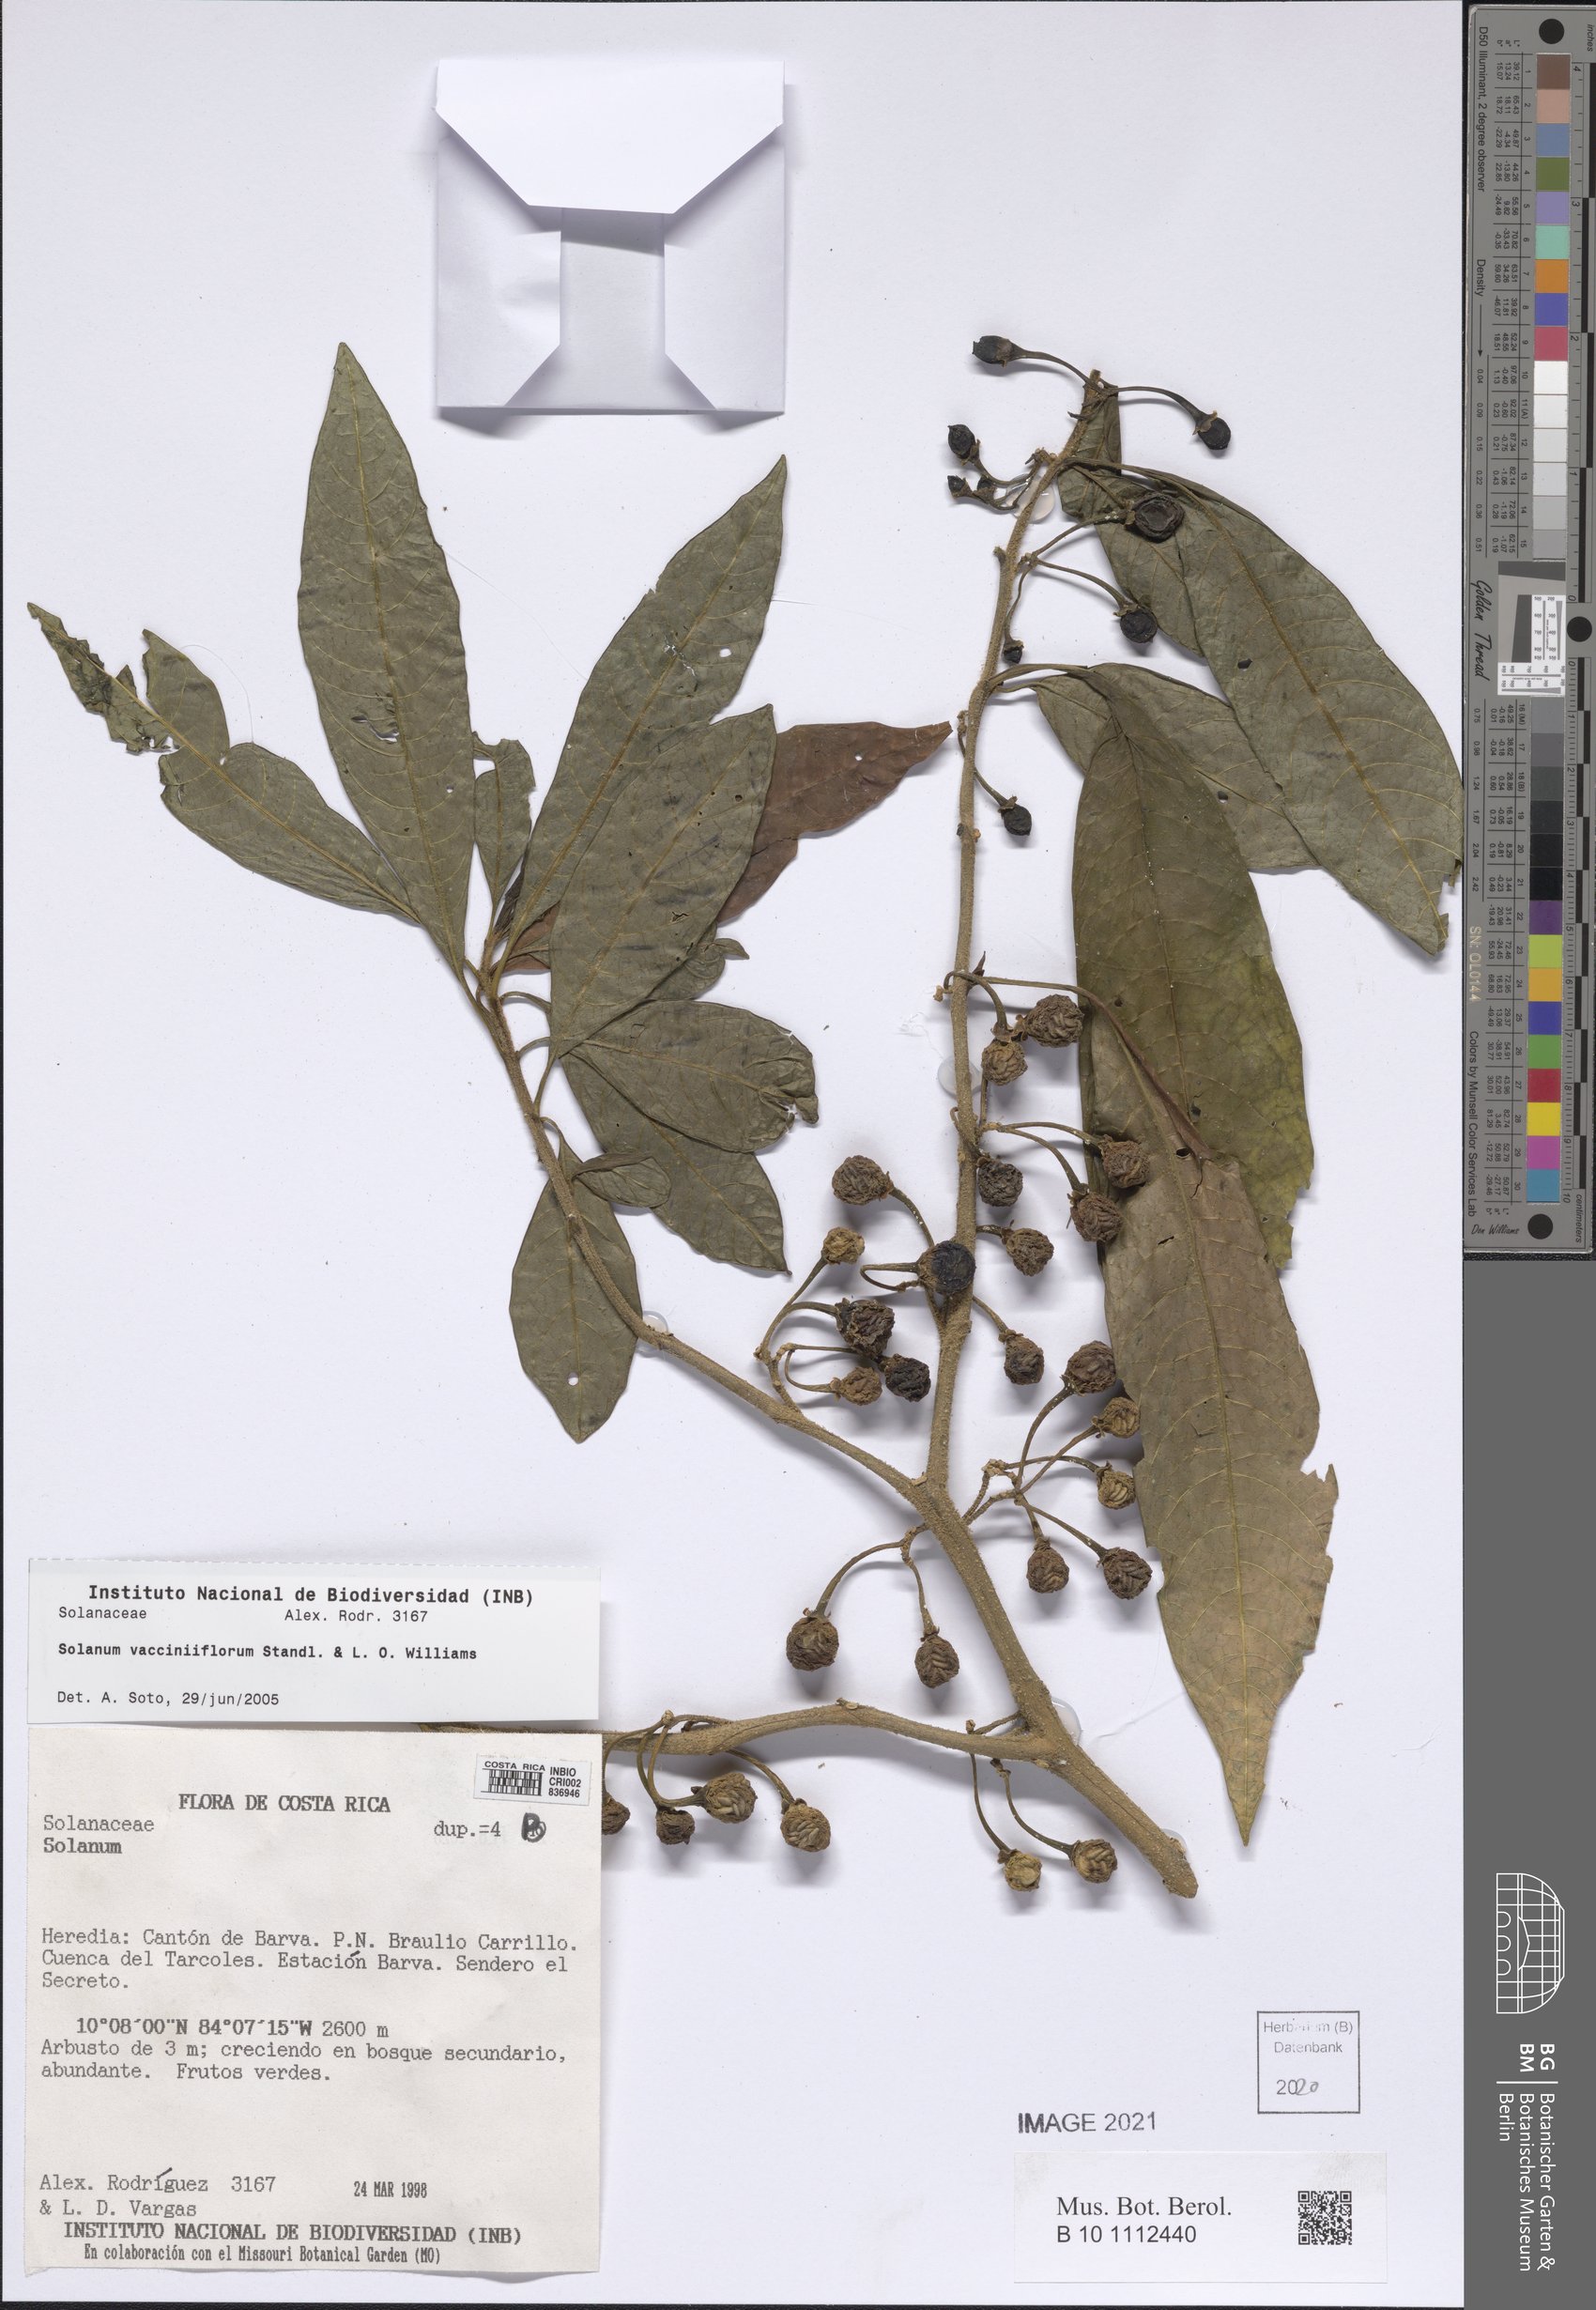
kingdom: Plantae
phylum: Tracheophyta
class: Magnoliopsida
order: Solanales
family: Solanaceae
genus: Solanum
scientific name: Solanum vacciniiflorum
